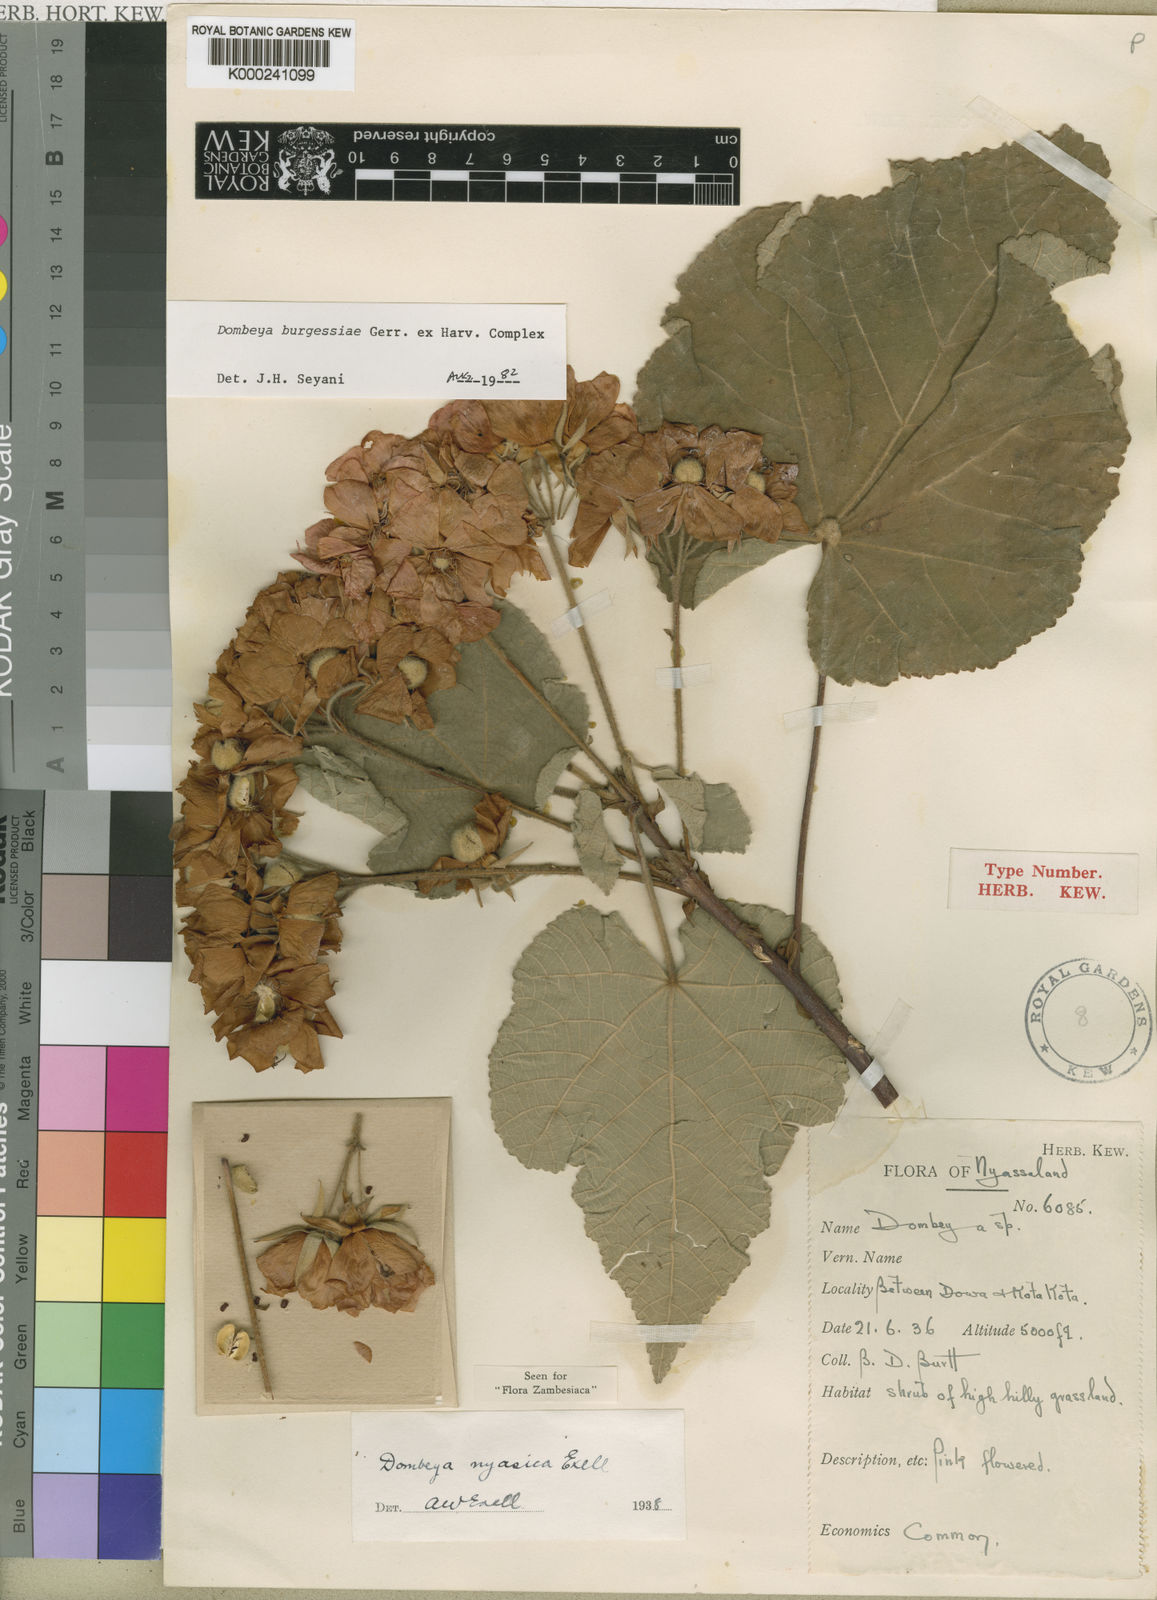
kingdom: Plantae
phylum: Tracheophyta
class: Magnoliopsida
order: Malvales
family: Malvaceae
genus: Dombeya
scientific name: Dombeya burgessiae
